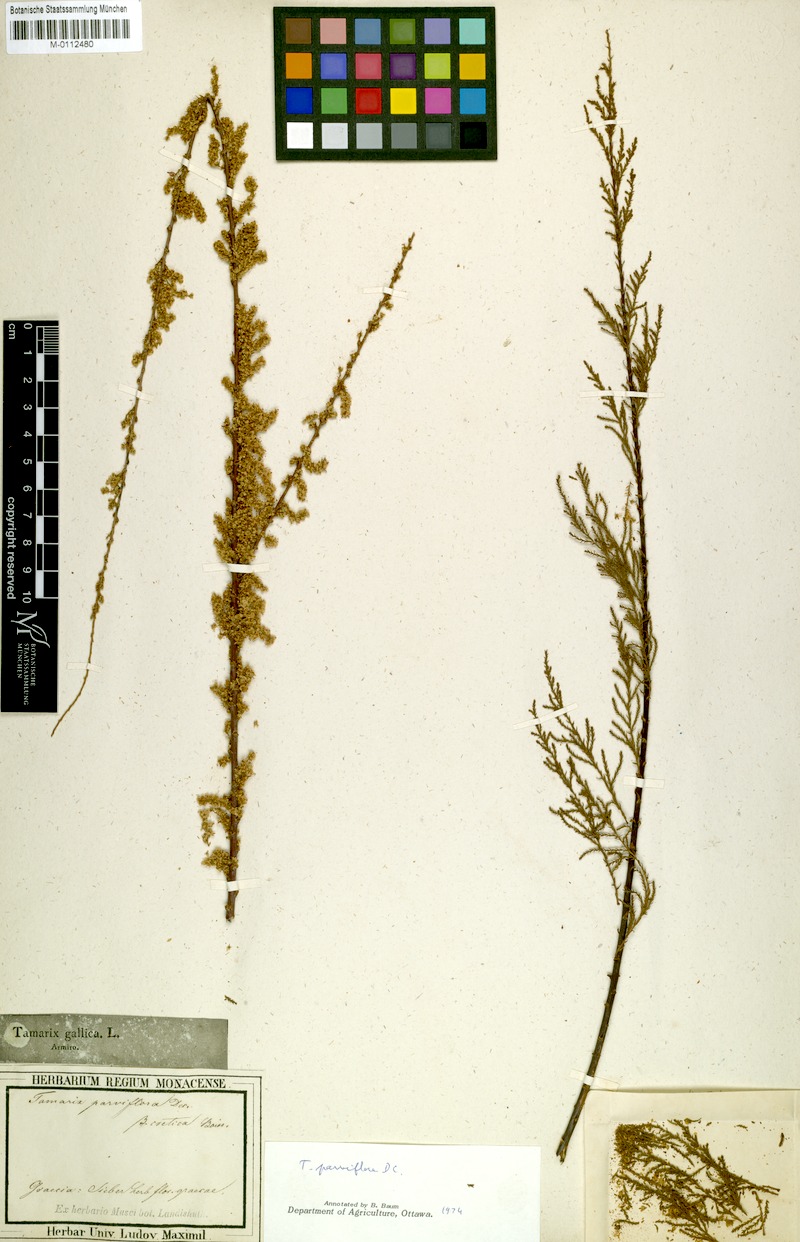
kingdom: Plantae
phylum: Tracheophyta
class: Magnoliopsida
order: Caryophyllales
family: Tamaricaceae
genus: Tamarix
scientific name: Tamarix parviflora
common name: Smallflower tamarisk
